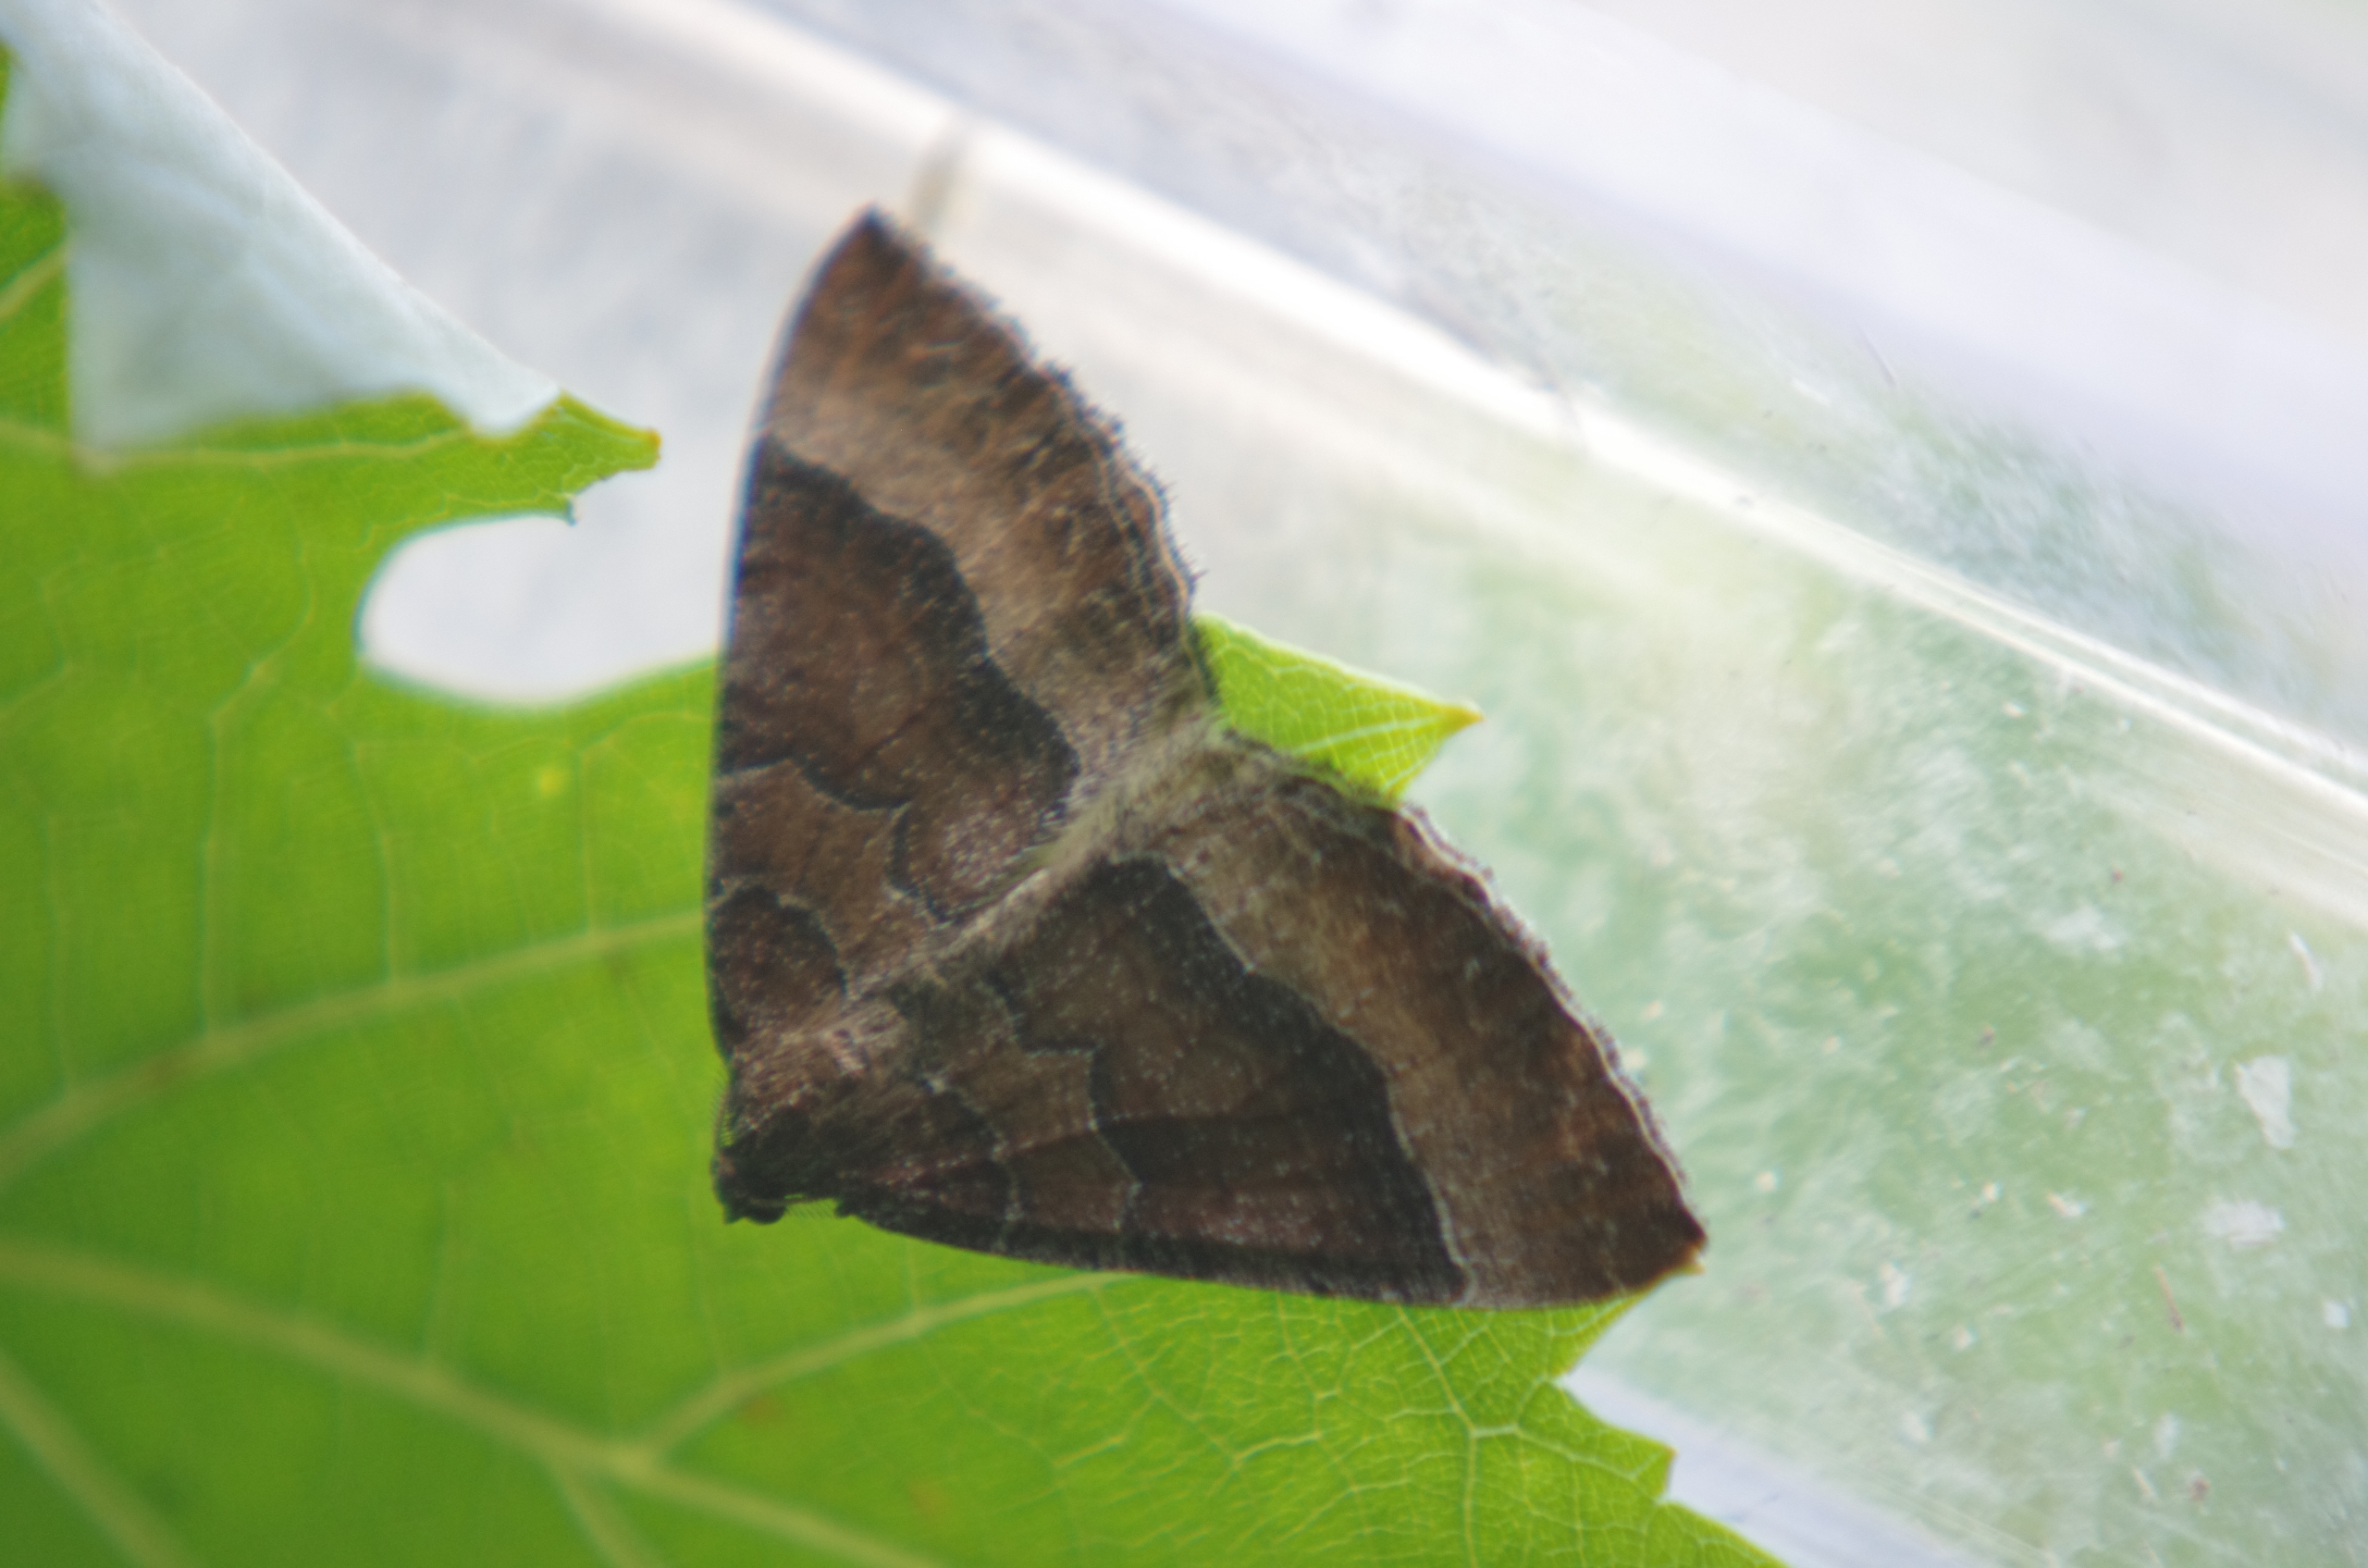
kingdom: Animalia
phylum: Arthropoda
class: Insecta
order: Lepidoptera
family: Geometridae
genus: Larentia
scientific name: Larentia clavaria
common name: Katostmåler
